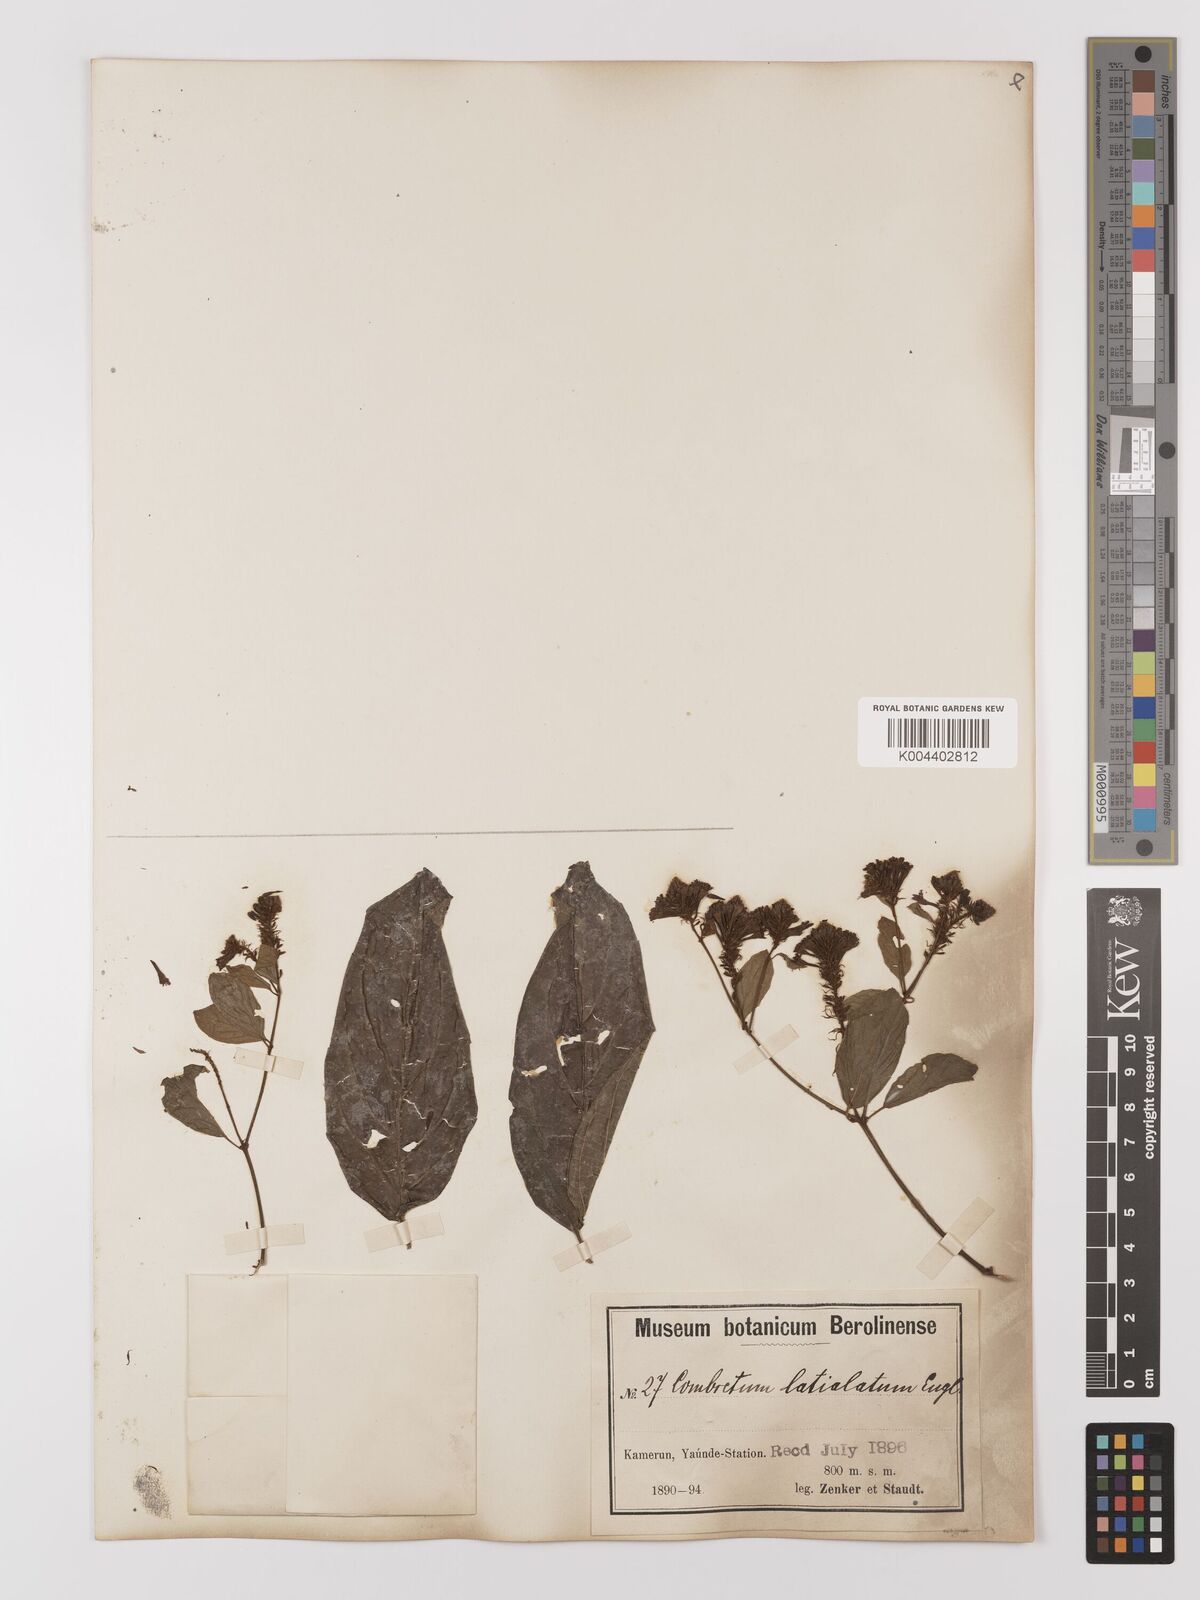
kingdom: Plantae
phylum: Tracheophyta
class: Magnoliopsida
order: Myrtales
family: Combretaceae
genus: Combretum
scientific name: Combretum latialatum
